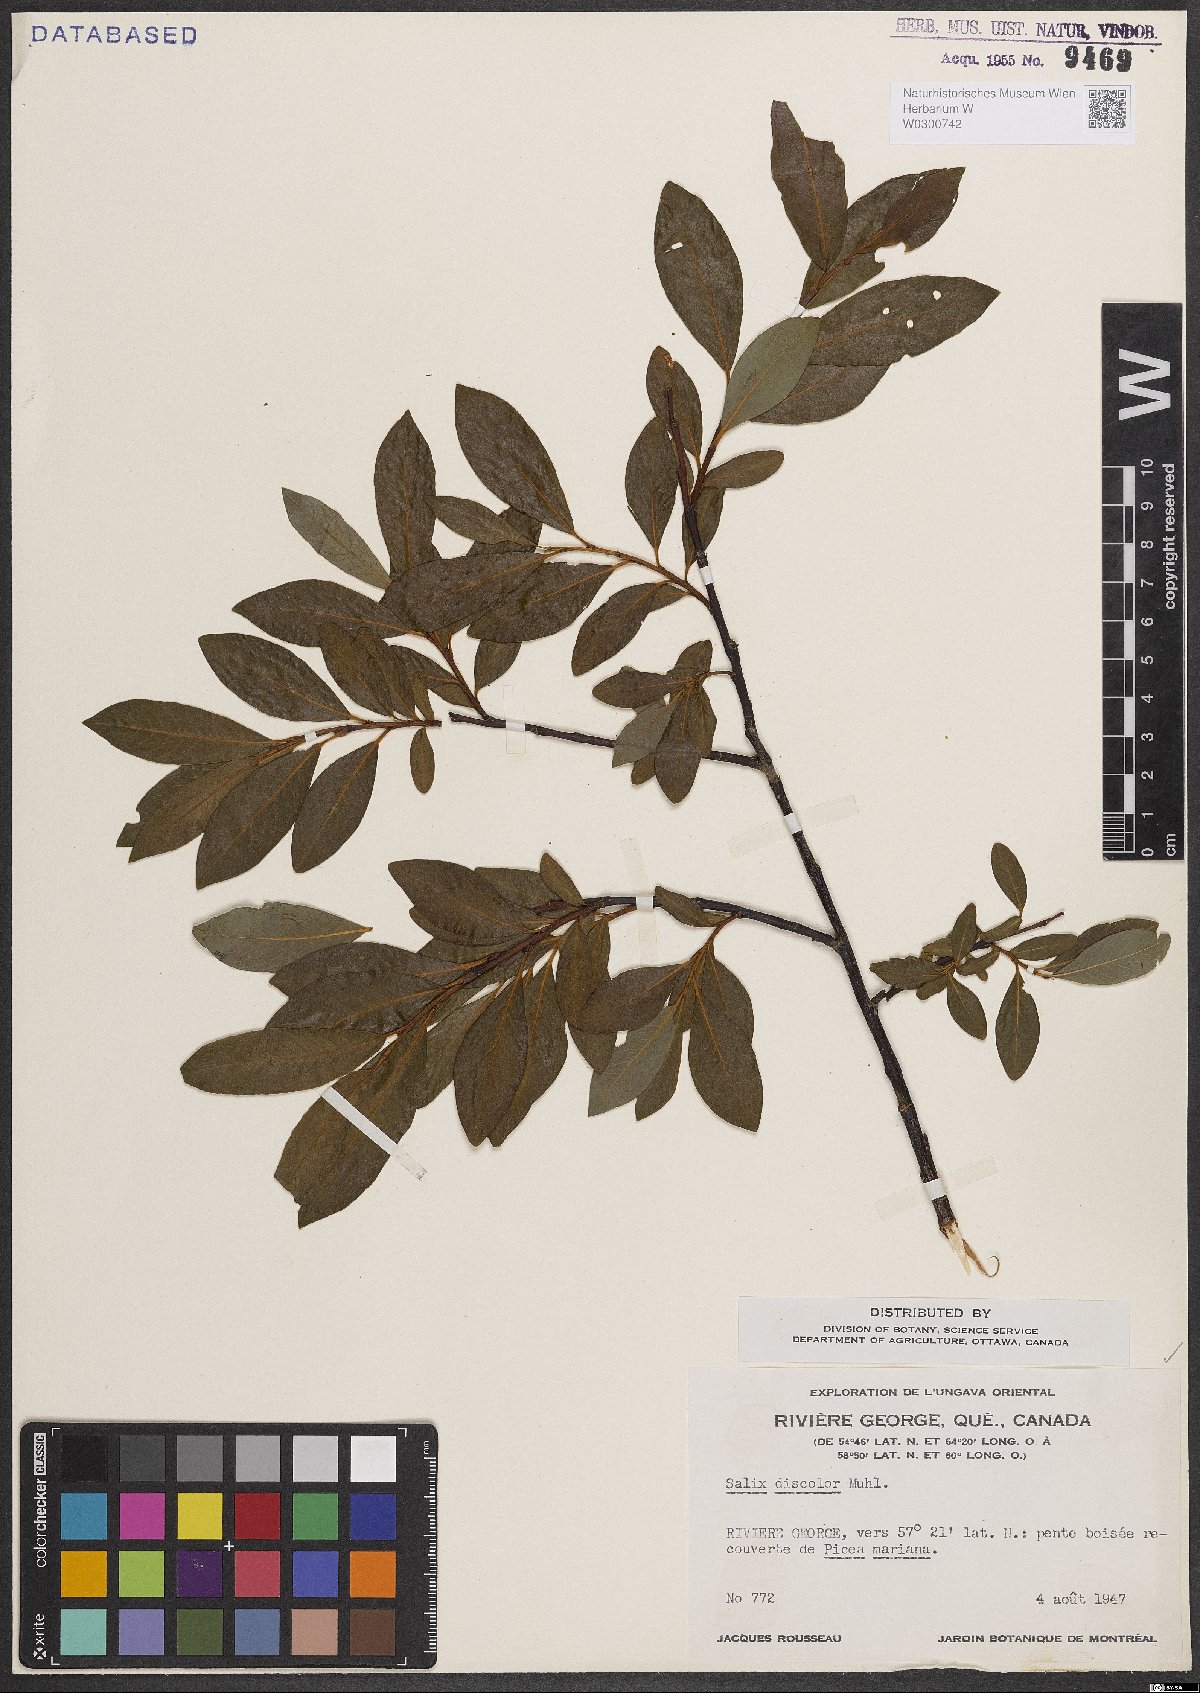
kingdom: Plantae
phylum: Tracheophyta
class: Magnoliopsida
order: Malpighiales
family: Salicaceae
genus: Salix
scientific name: Salix discolor
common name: Glaucous willow
